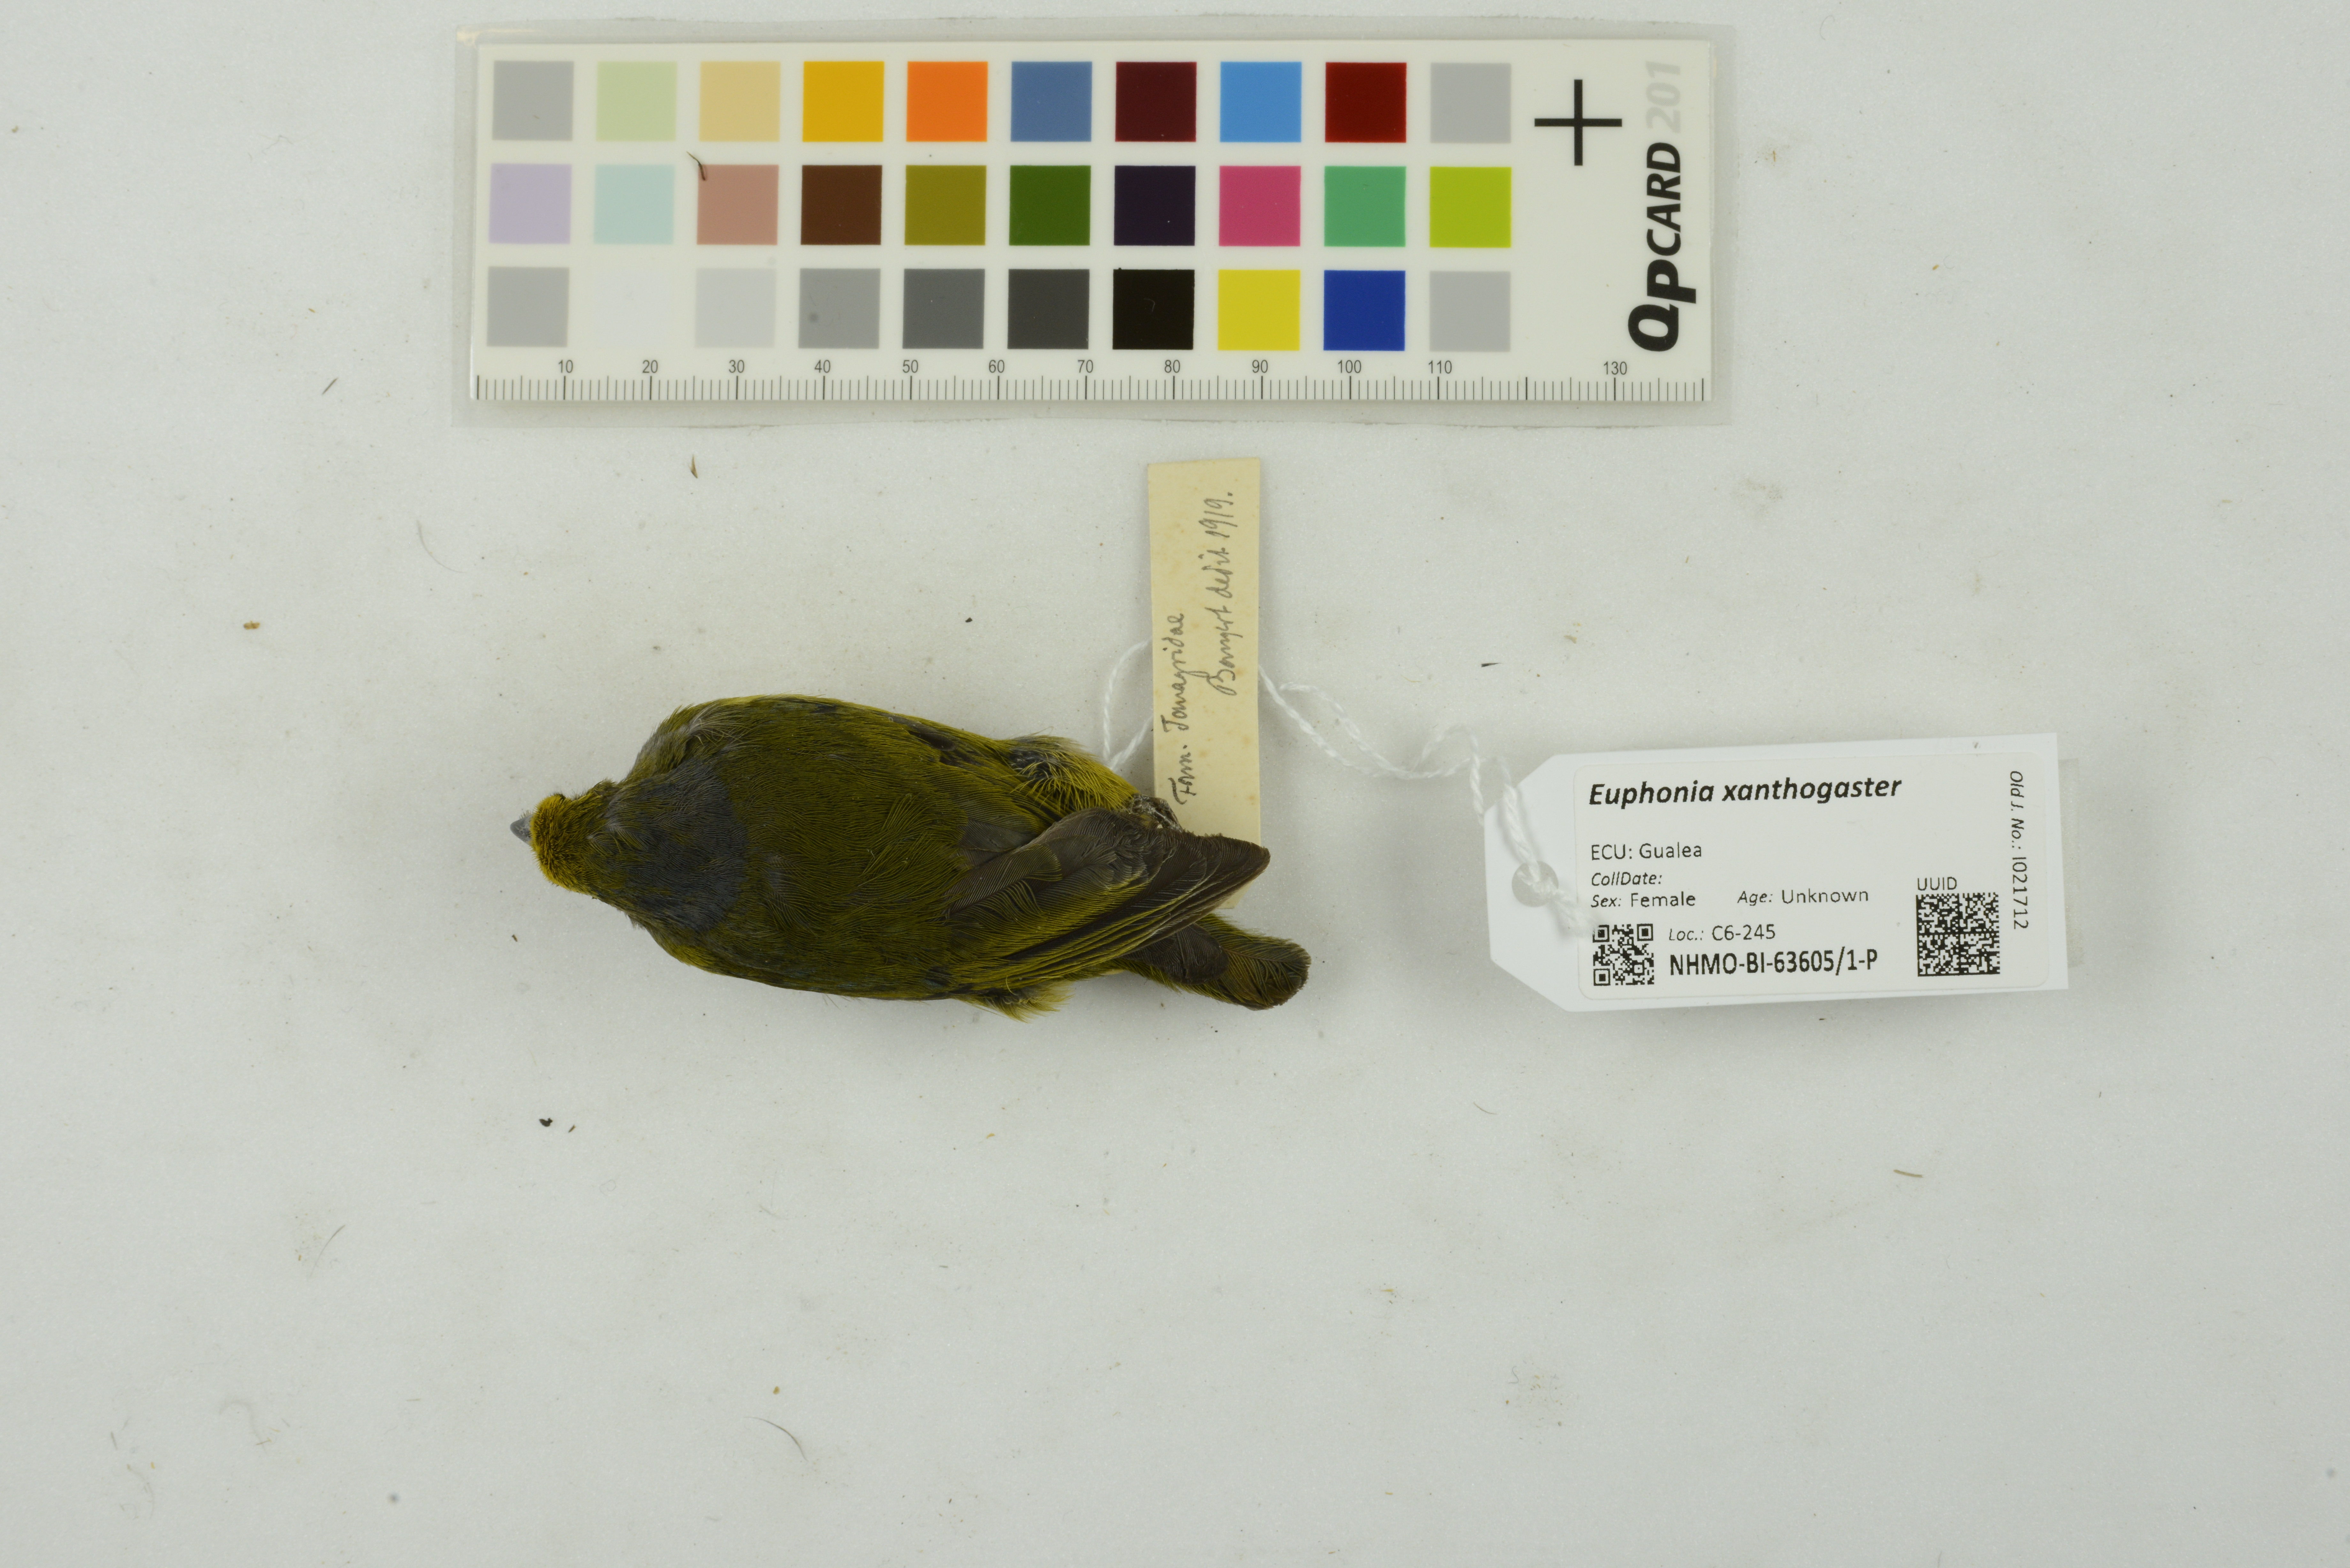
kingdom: Animalia
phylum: Chordata
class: Aves
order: Passeriformes
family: Fringillidae
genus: Euphonia
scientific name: Euphonia xanthogaster
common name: Orange-bellied euphonia
